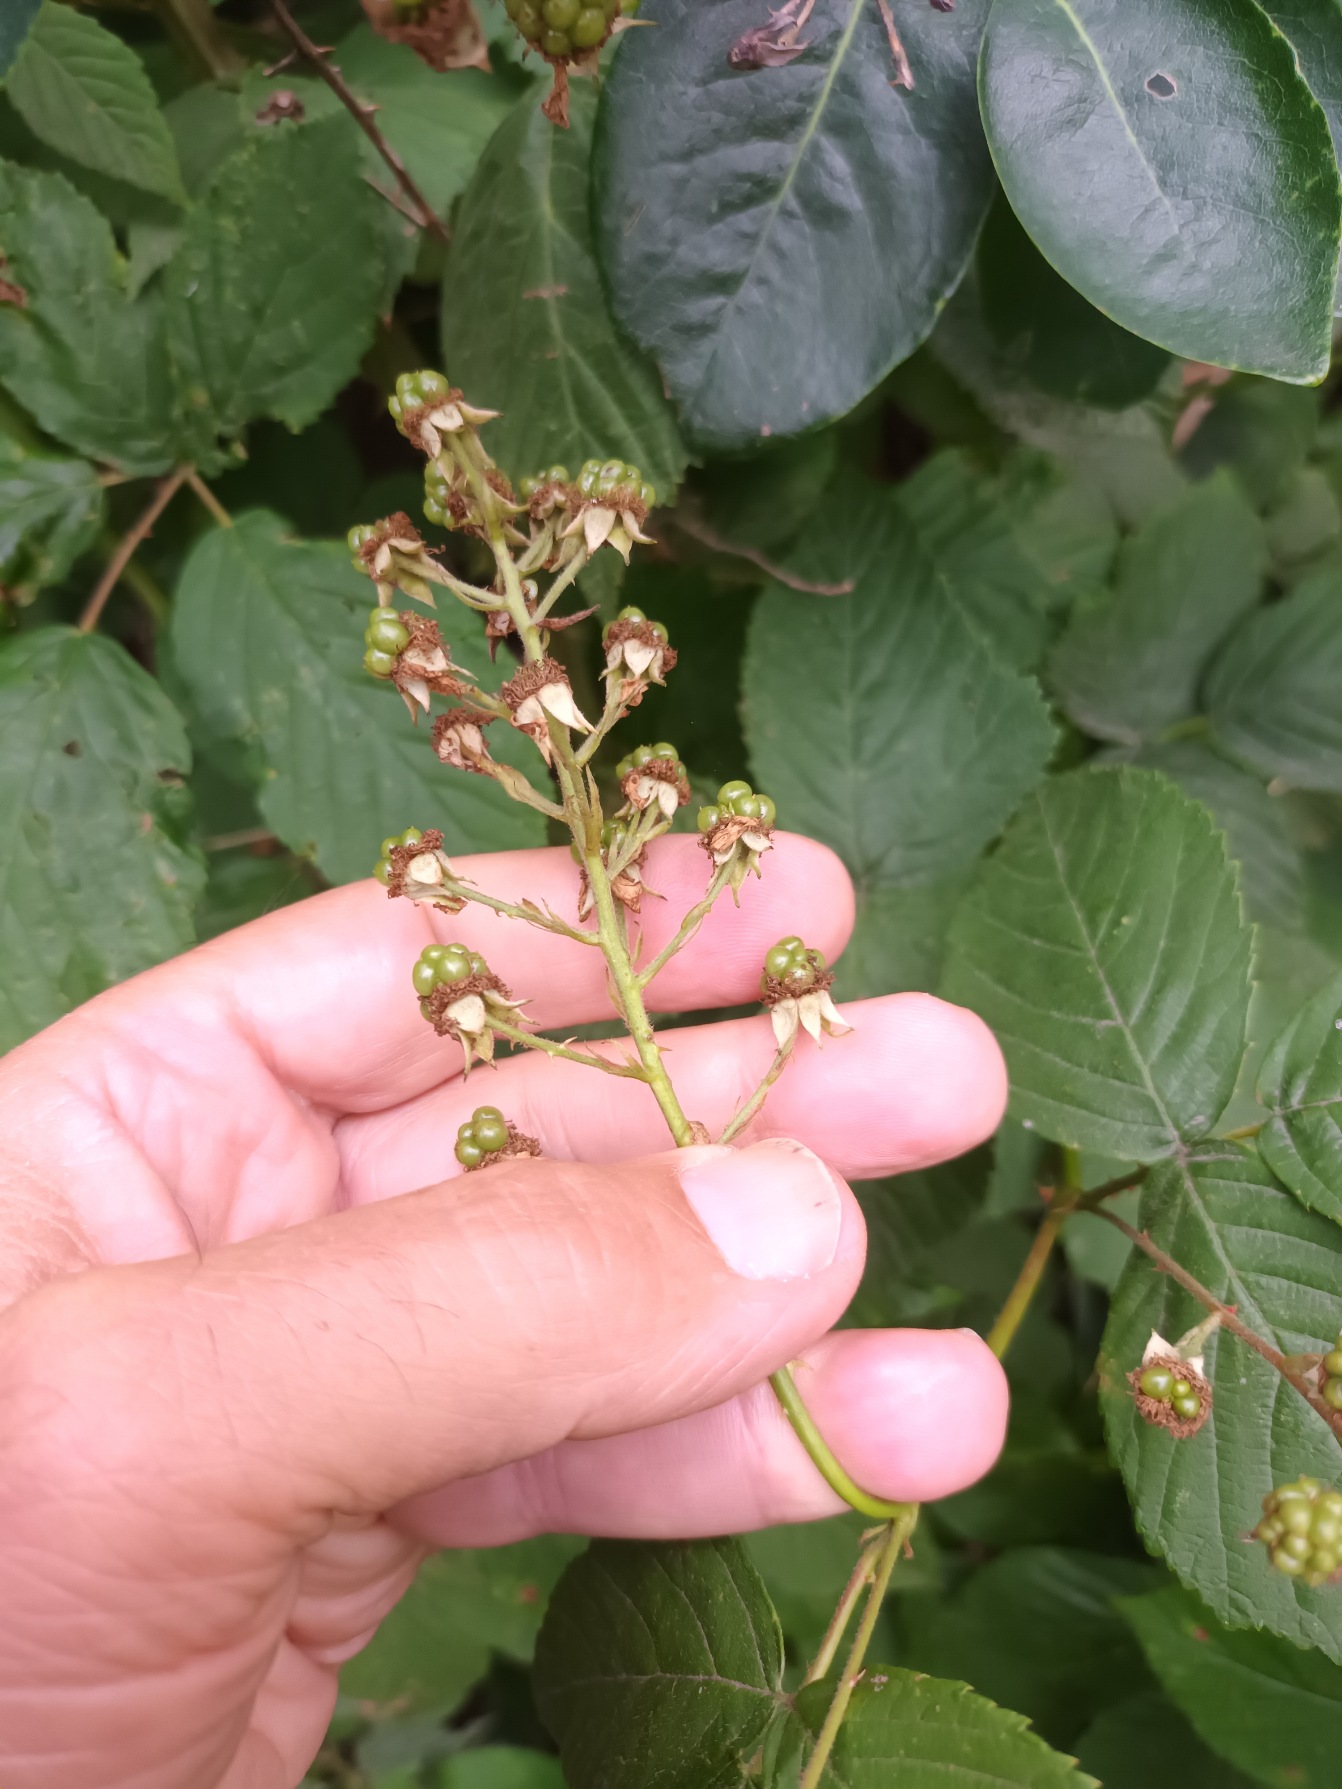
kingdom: Plantae
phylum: Tracheophyta
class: Magnoliopsida
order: Rosales
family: Rosaceae
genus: Rubus
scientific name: Rubus pseudothyrsanthus
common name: Top-brombær
